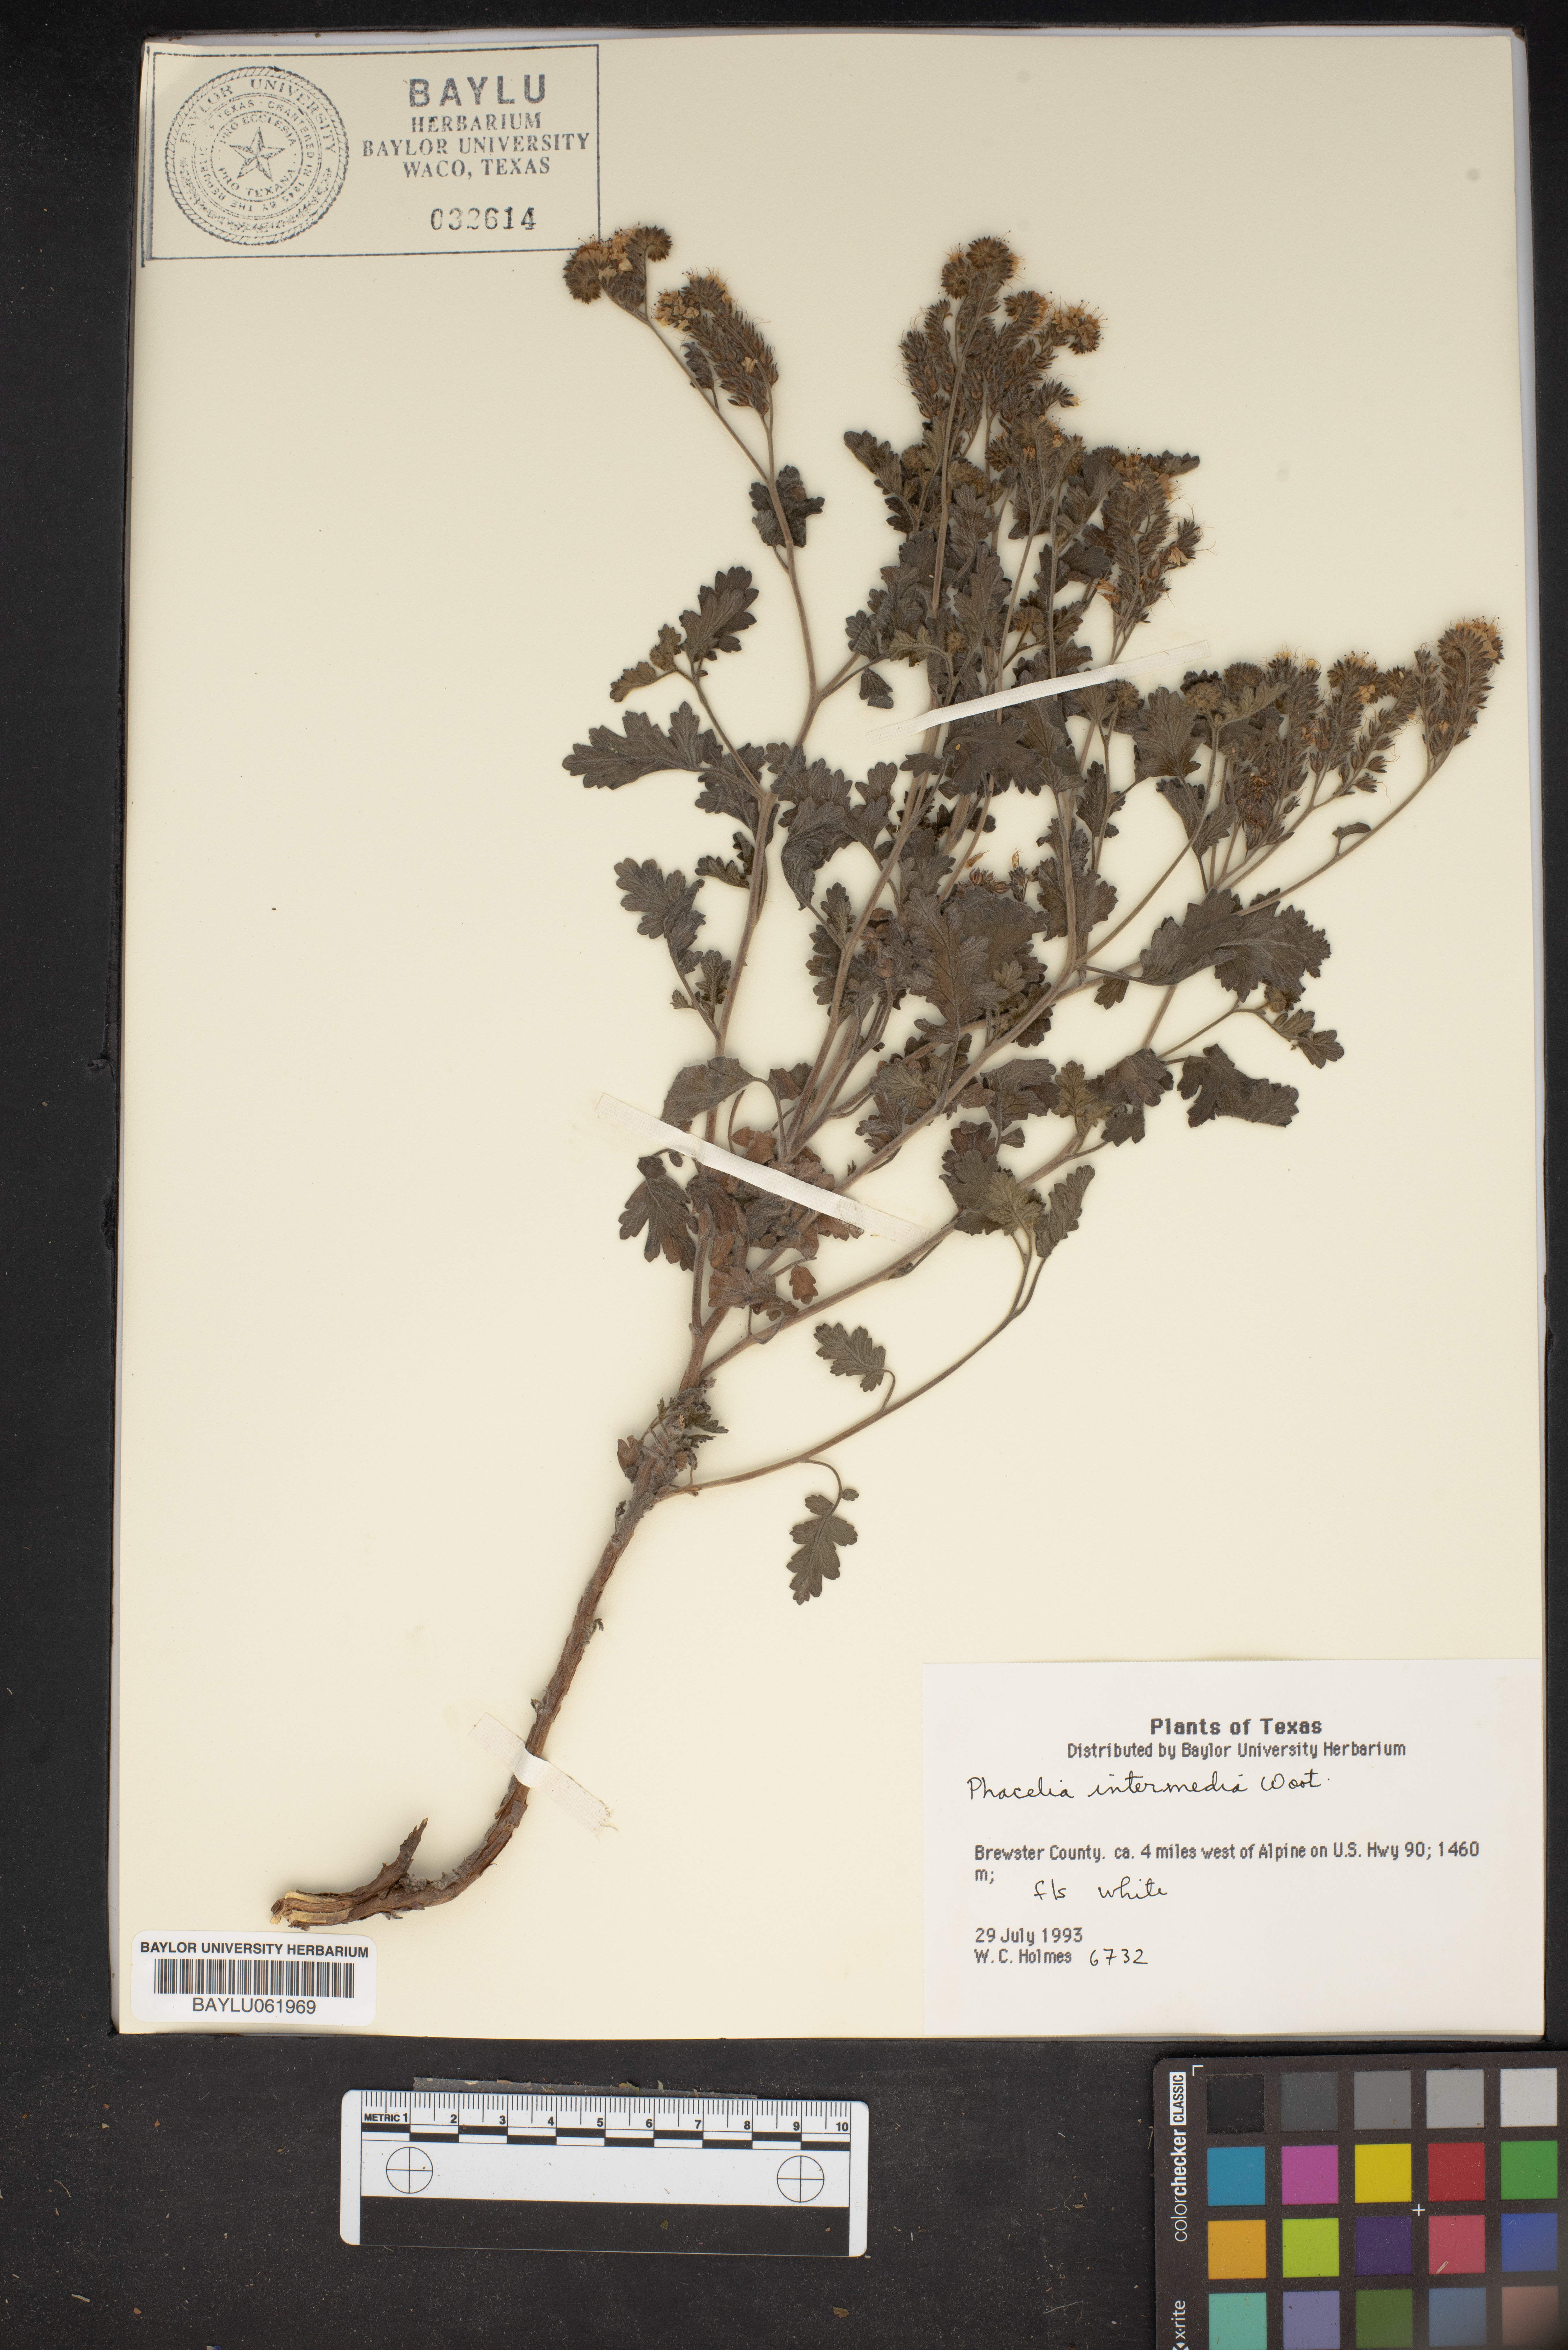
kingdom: Plantae
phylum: Tracheophyta
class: Magnoliopsida
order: Boraginales
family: Hydrophyllaceae
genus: Phacelia
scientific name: Phacelia coerulea
